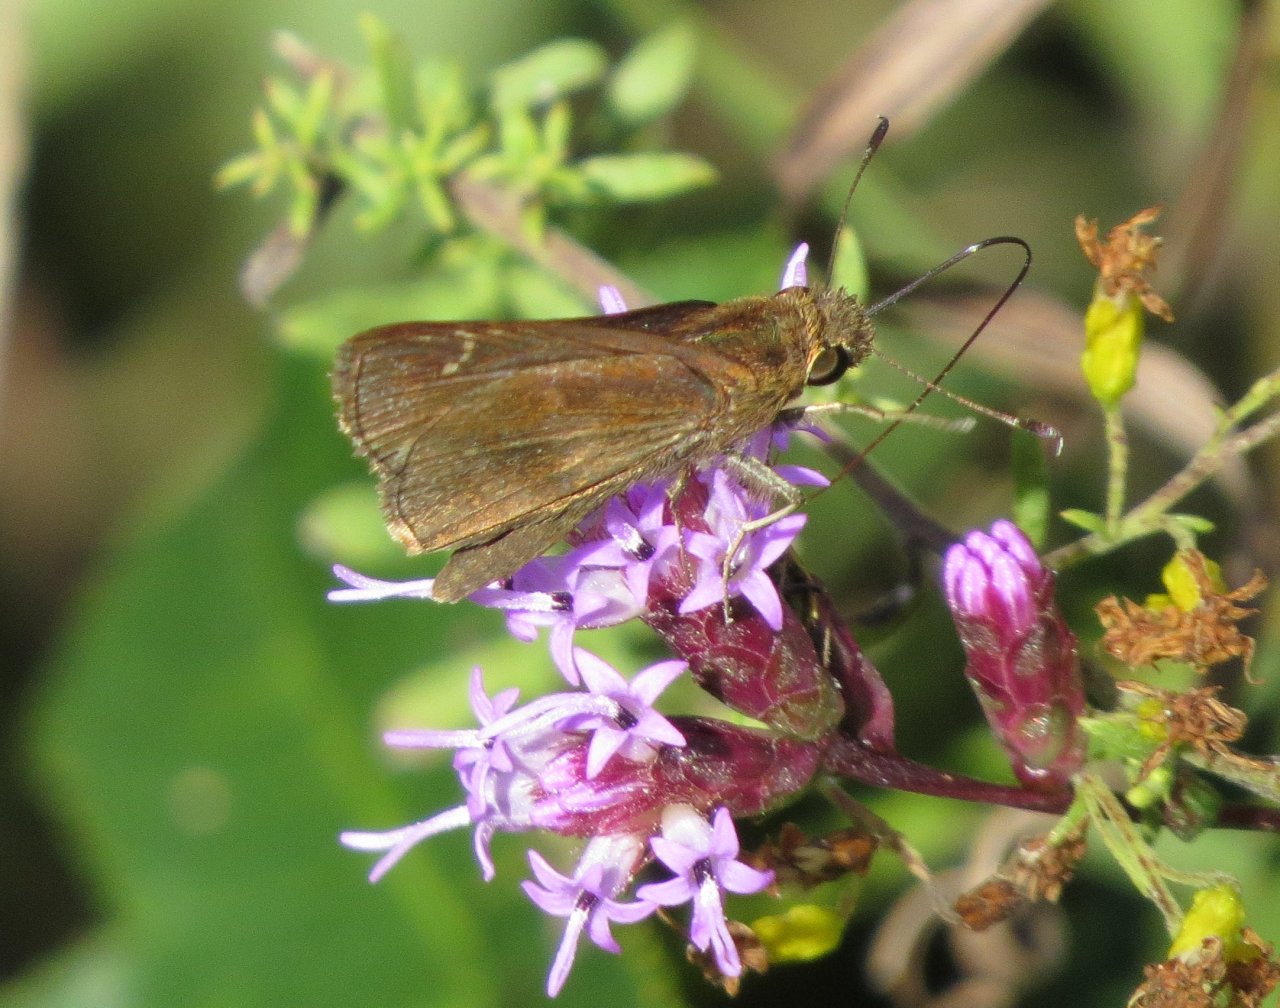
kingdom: Animalia
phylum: Arthropoda
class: Insecta
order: Lepidoptera
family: Hesperiidae
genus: Lerema
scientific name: Lerema accius
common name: Clouded Skipper
